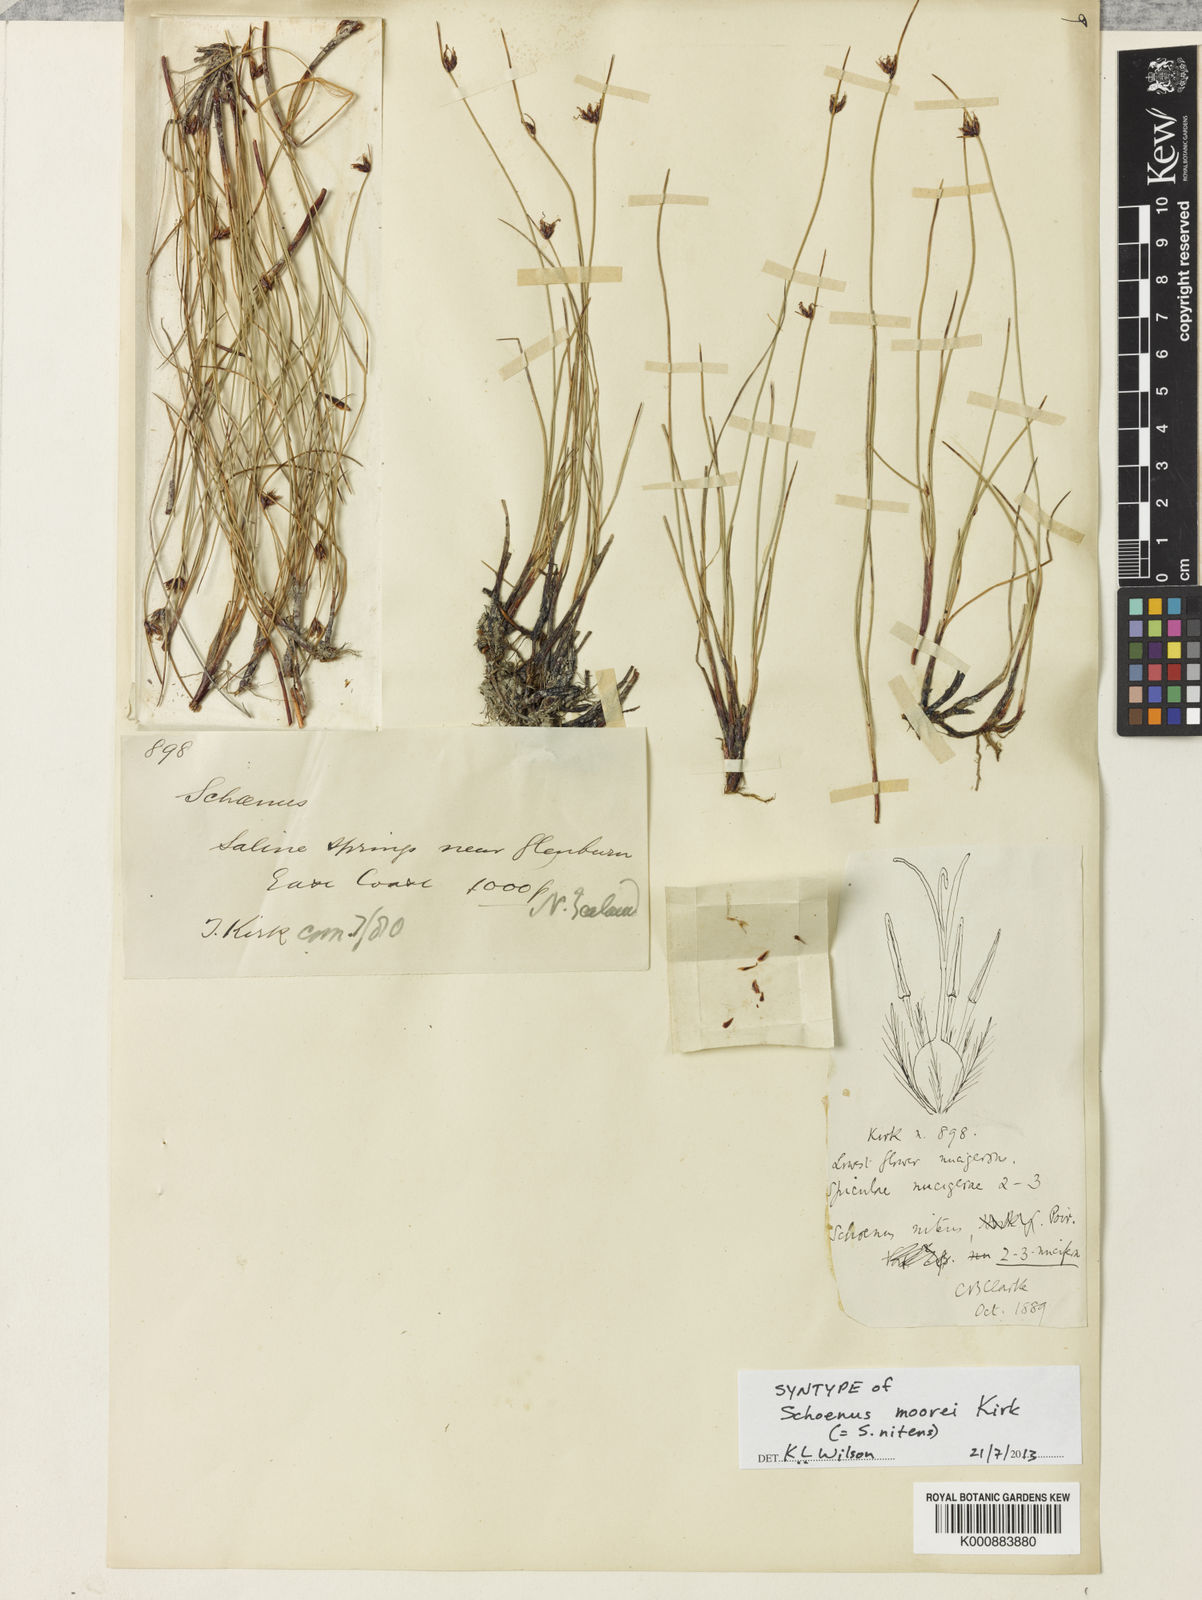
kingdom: Plantae
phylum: Tracheophyta
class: Liliopsida
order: Poales
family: Cyperaceae
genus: Schoenus
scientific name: Schoenus
